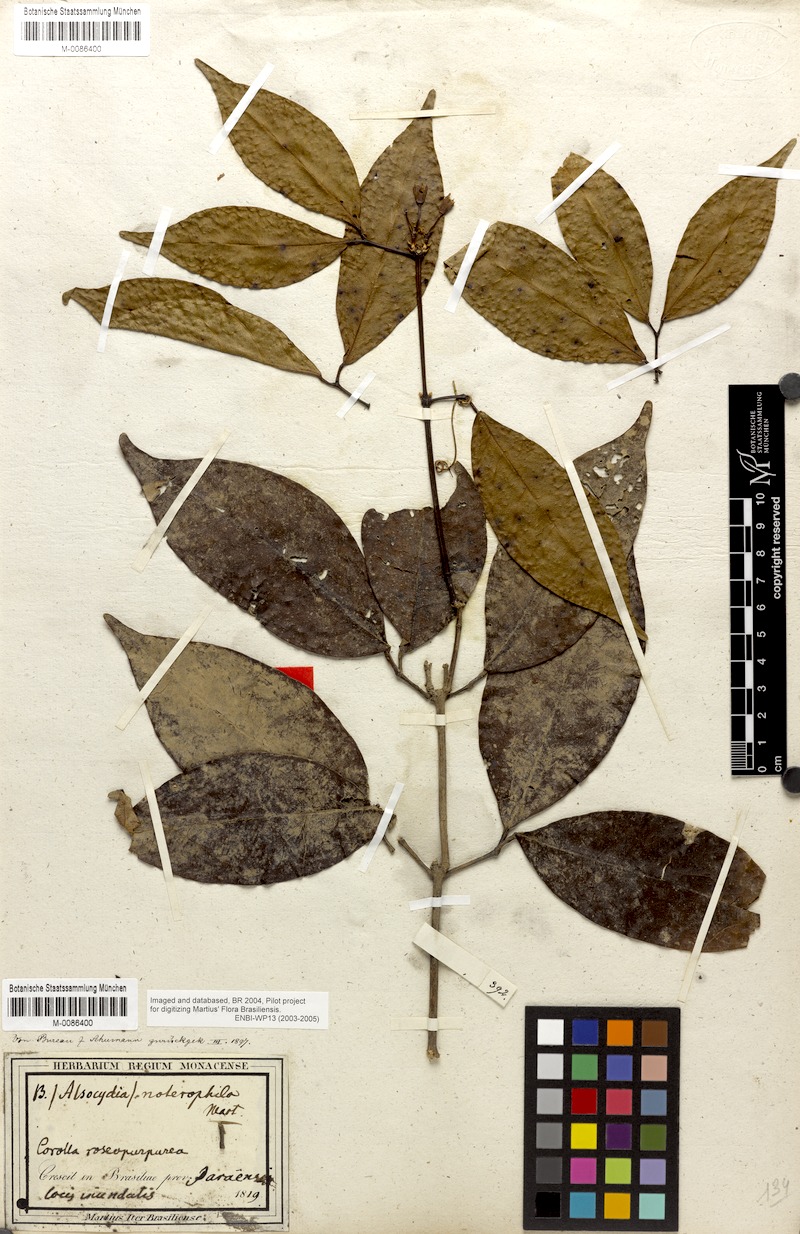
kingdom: Plantae
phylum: Tracheophyta
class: Magnoliopsida
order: Lamiales
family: Bignoniaceae
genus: Bignonia
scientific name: Bignonia binata
